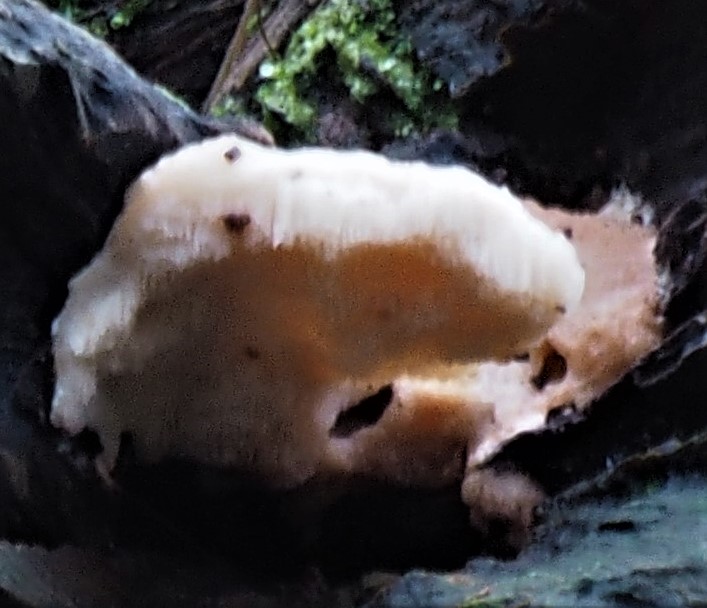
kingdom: Fungi
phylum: Basidiomycota
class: Agaricomycetes
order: Polyporales
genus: Fuscopostia
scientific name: Fuscopostia fragilis
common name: brunende kødporesvamp
